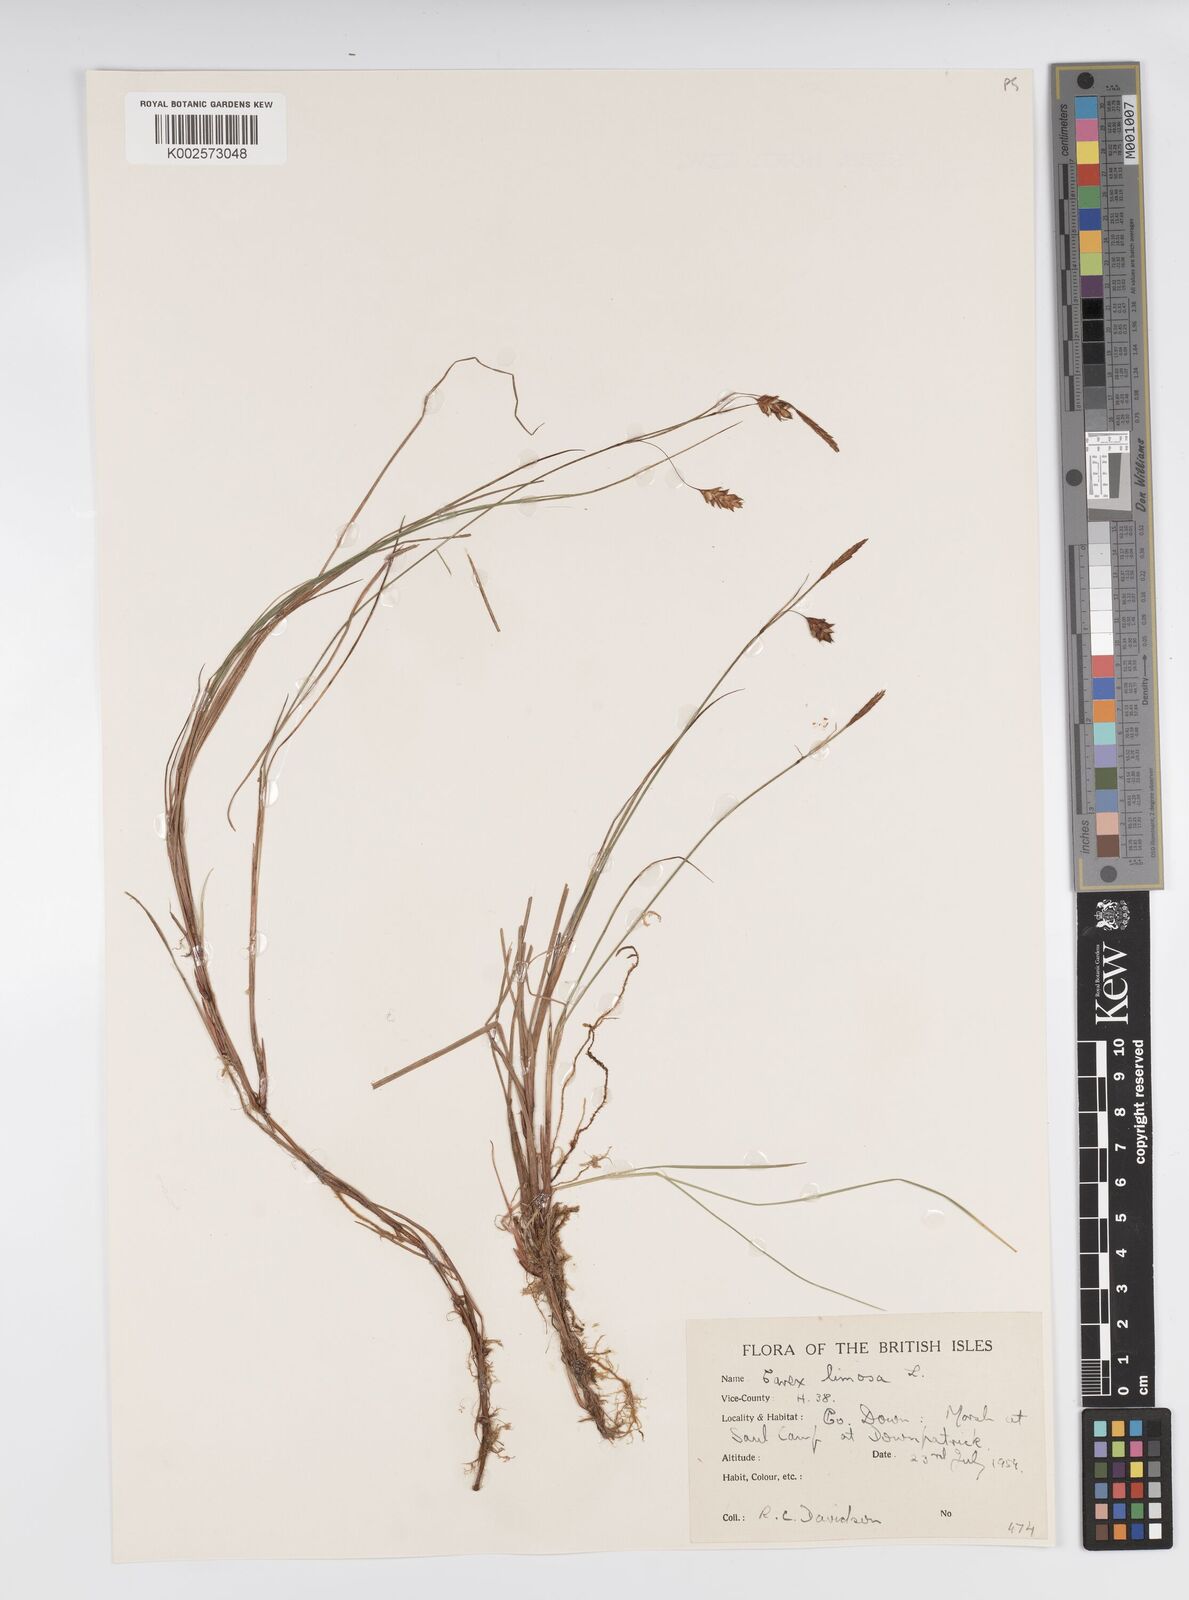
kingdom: Plantae
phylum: Tracheophyta
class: Liliopsida
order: Poales
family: Cyperaceae
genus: Carex
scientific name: Carex limosa
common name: Bog sedge
